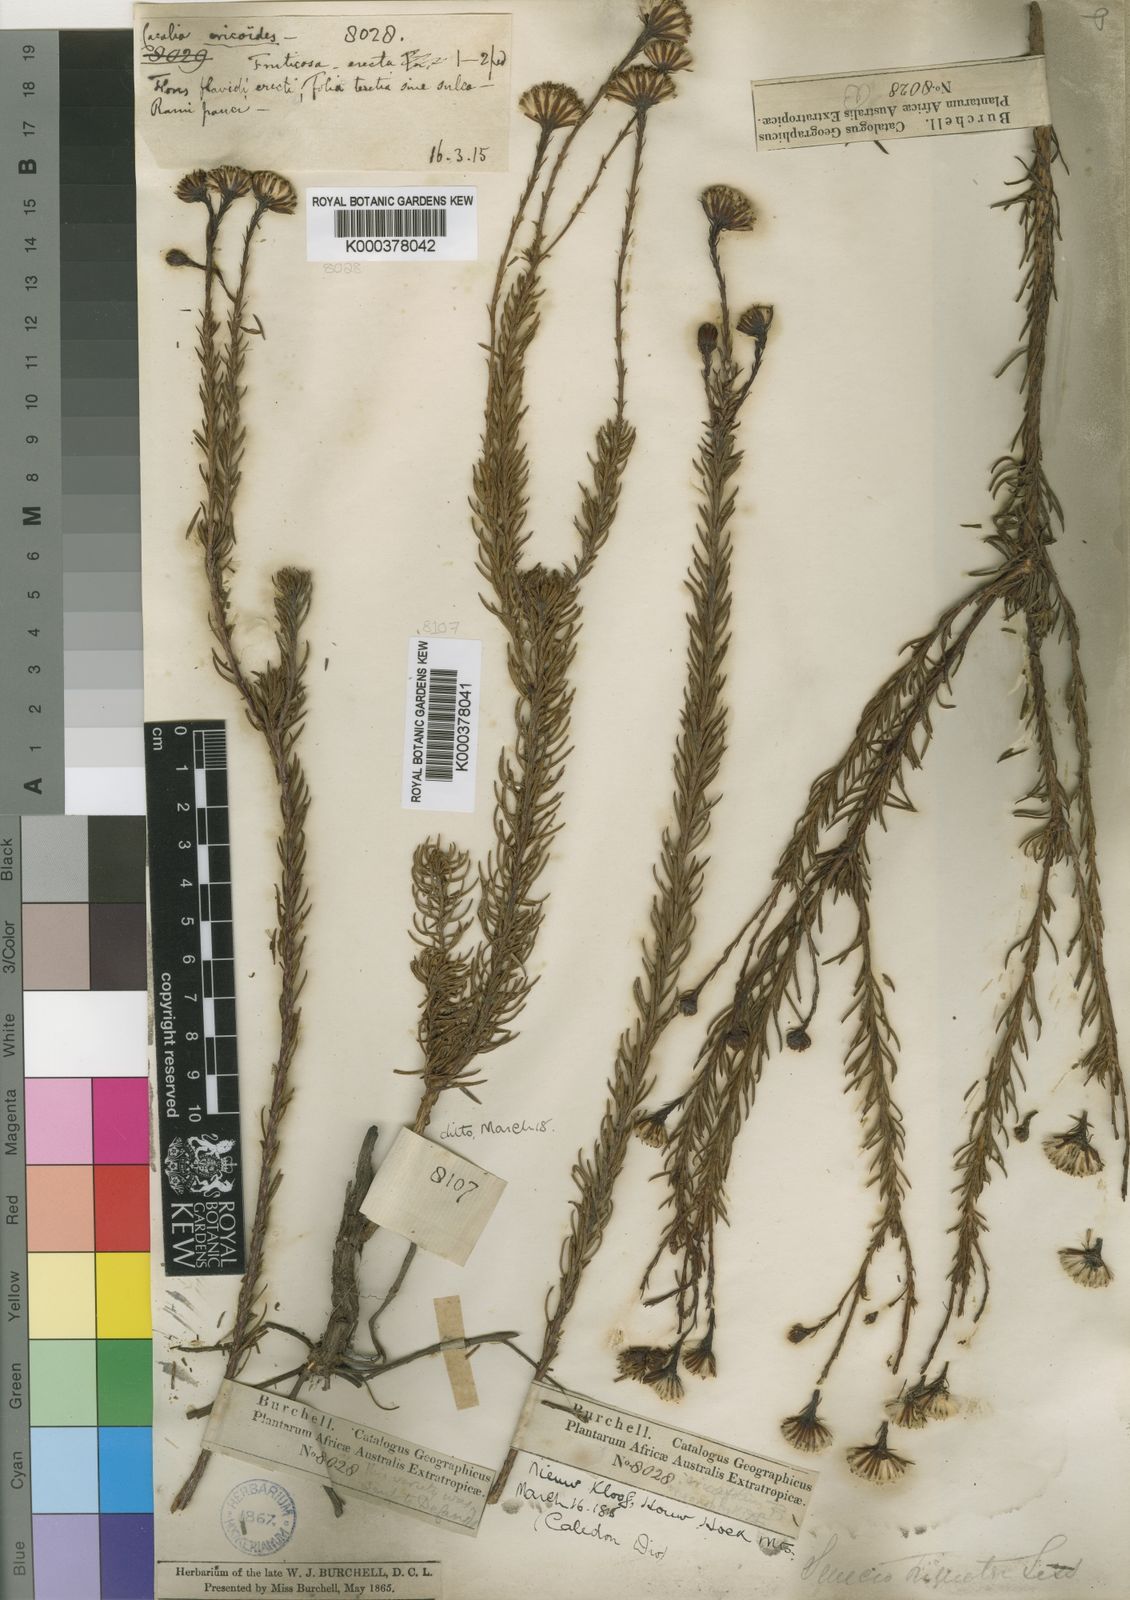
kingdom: Plantae
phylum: Tracheophyta
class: Magnoliopsida
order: Asterales
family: Asteraceae
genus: Senecio
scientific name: Senecio triqueter
